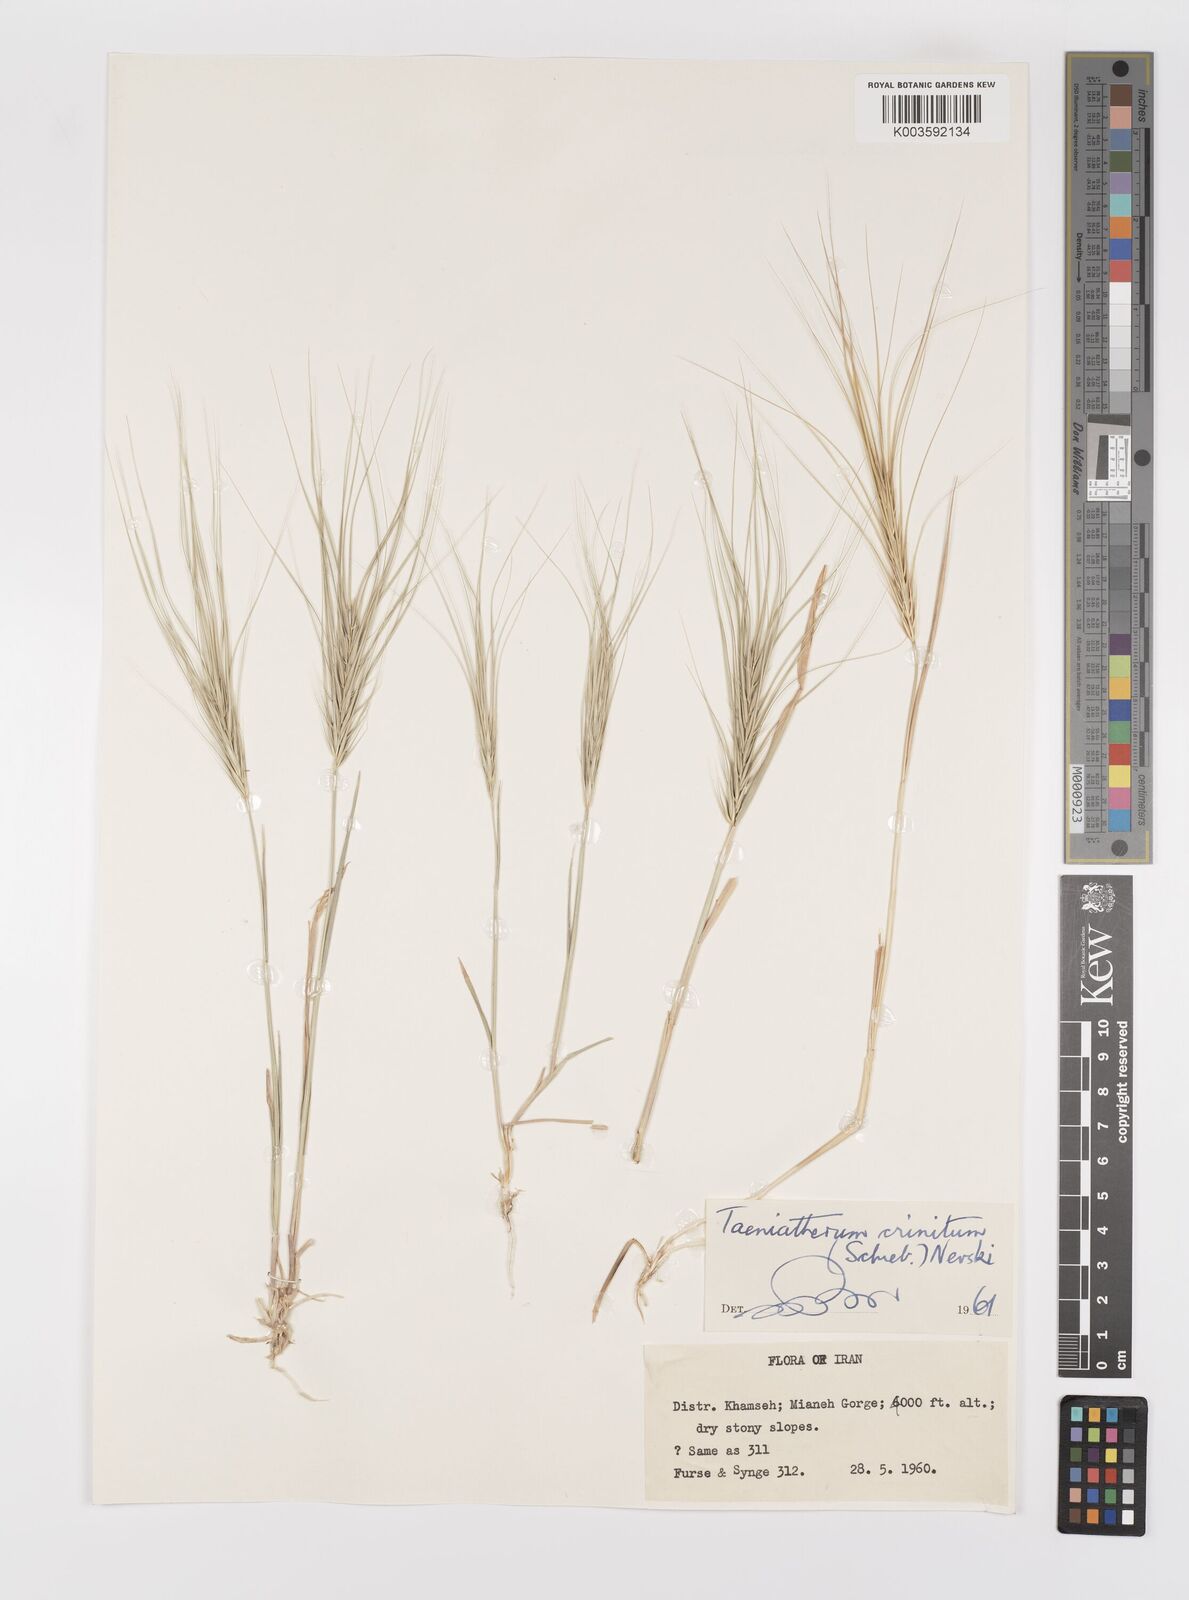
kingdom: Plantae
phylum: Tracheophyta
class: Liliopsida
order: Poales
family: Poaceae
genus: Taeniatherum
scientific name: Taeniatherum caput-medusae
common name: Medusahead
